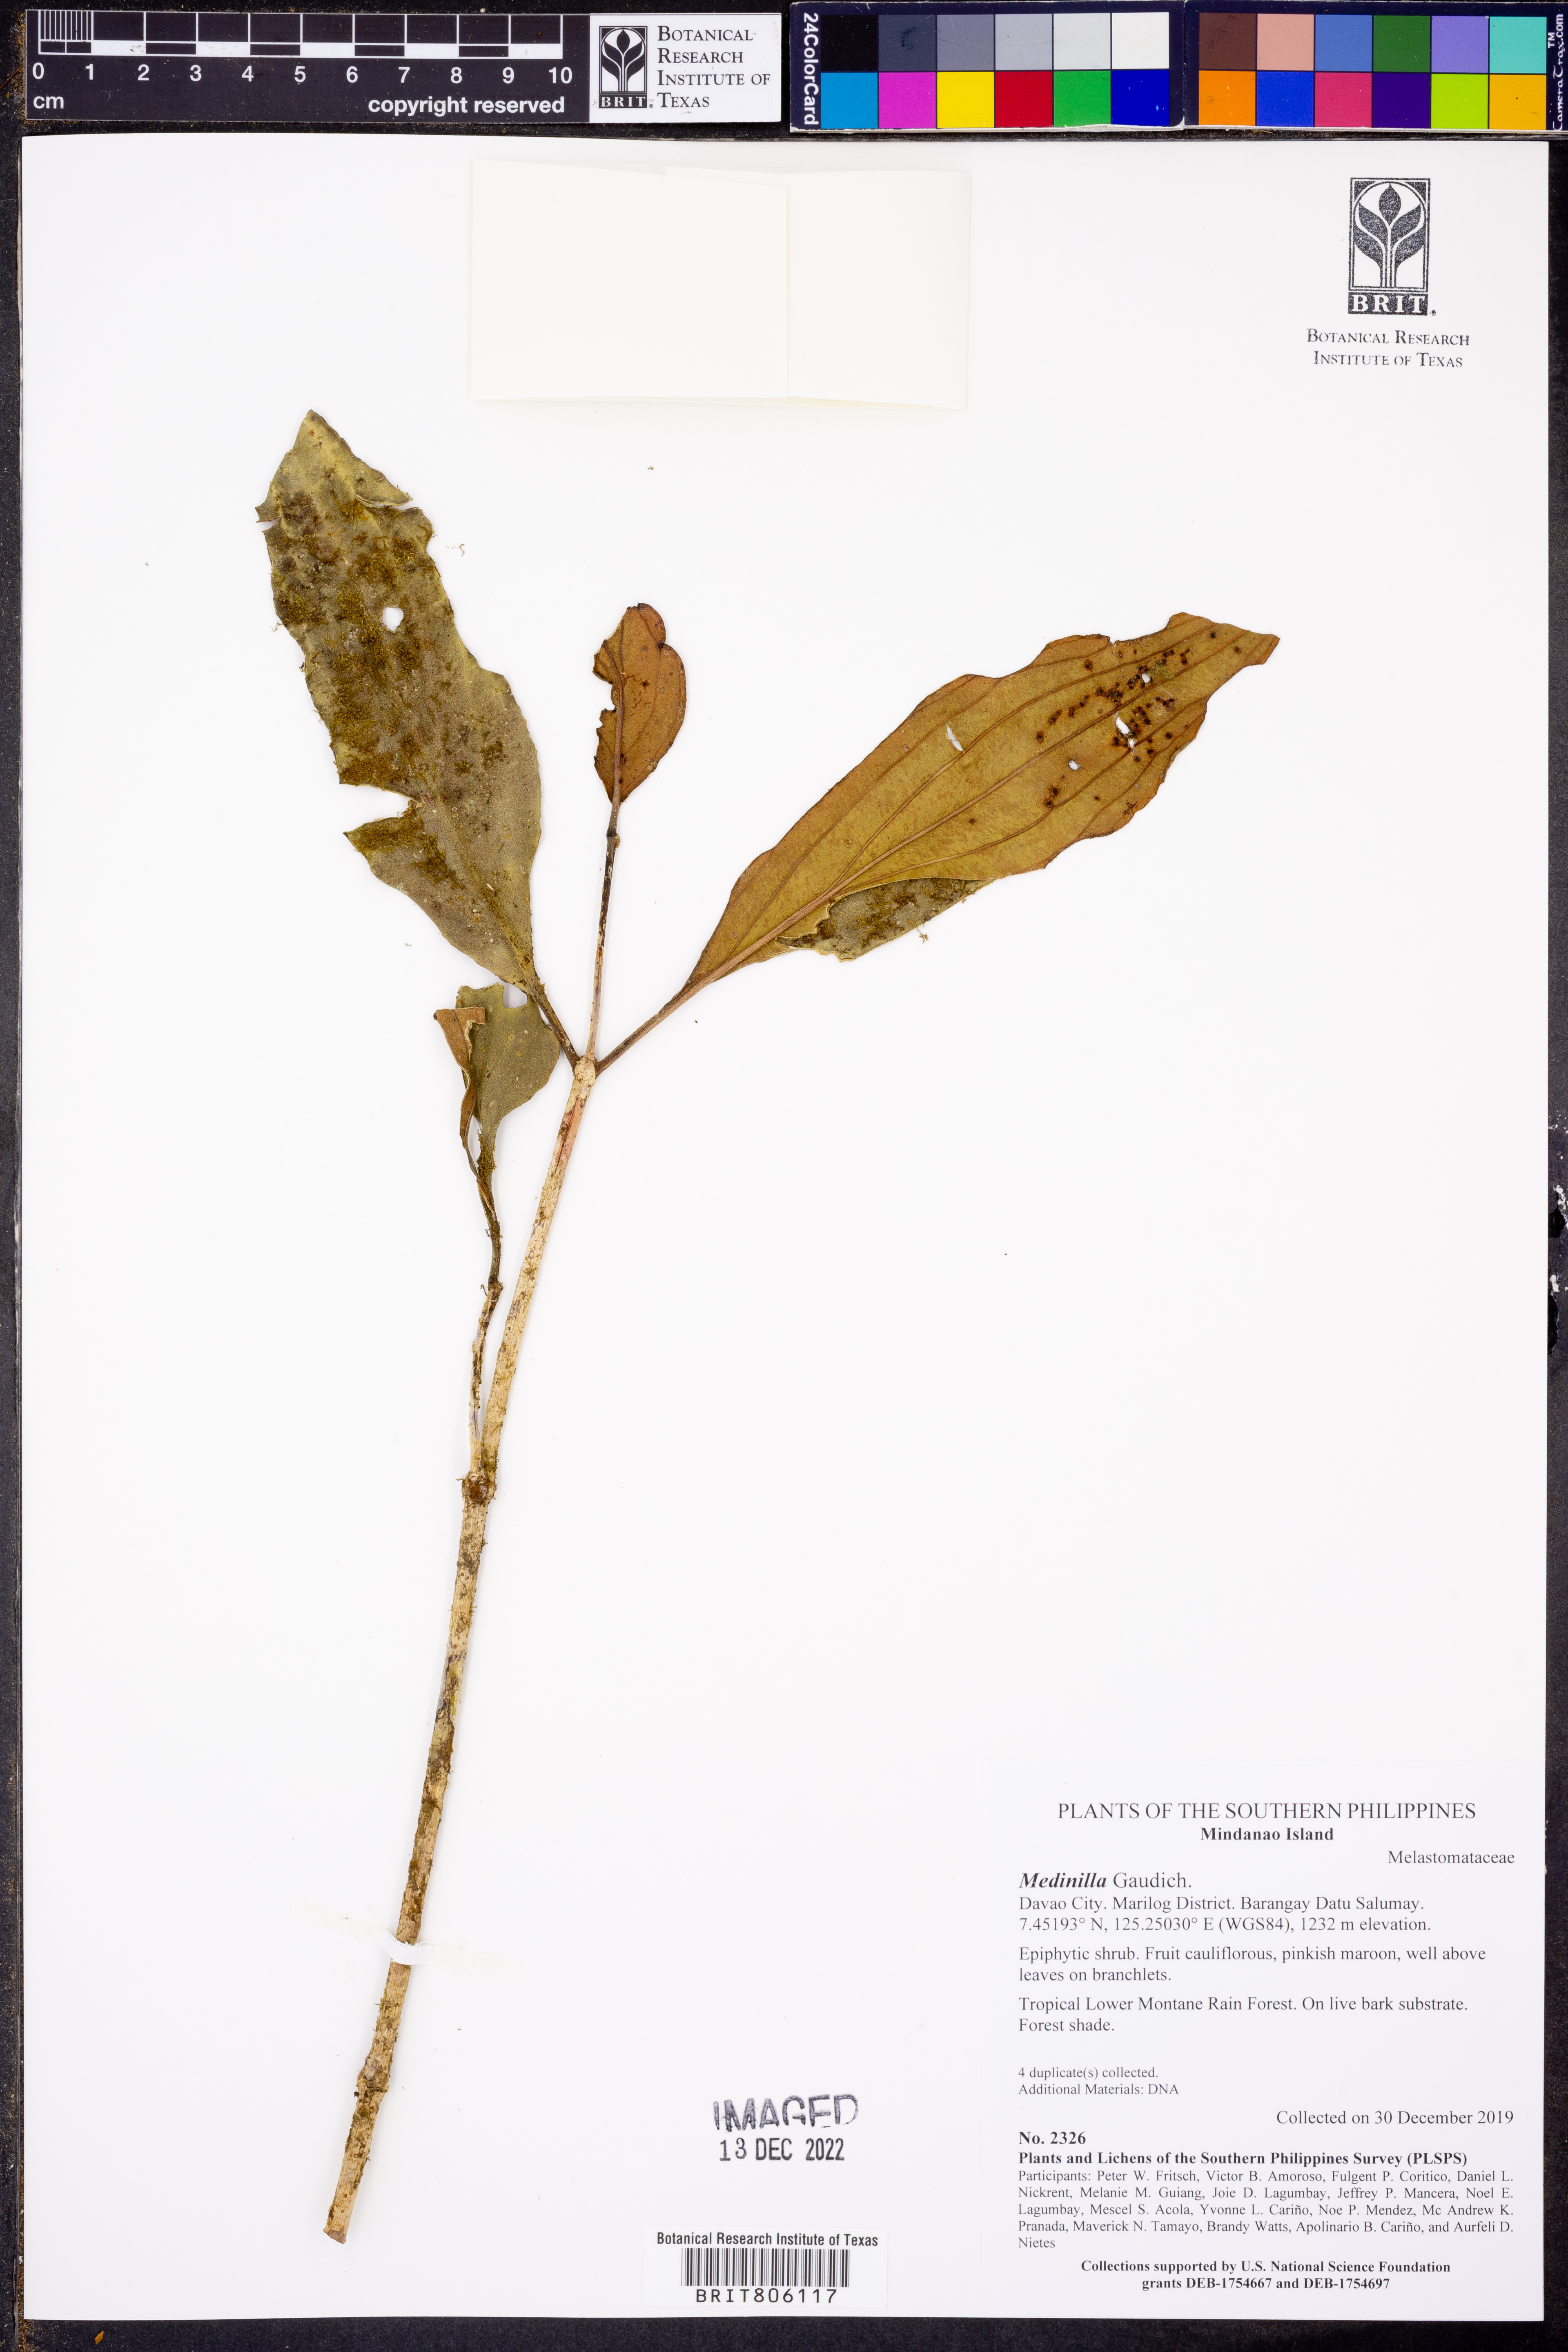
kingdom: Plantae
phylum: Tracheophyta
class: Magnoliopsida
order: Myrtales
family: Melastomataceae
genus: Medinilla
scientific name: Medinilla
